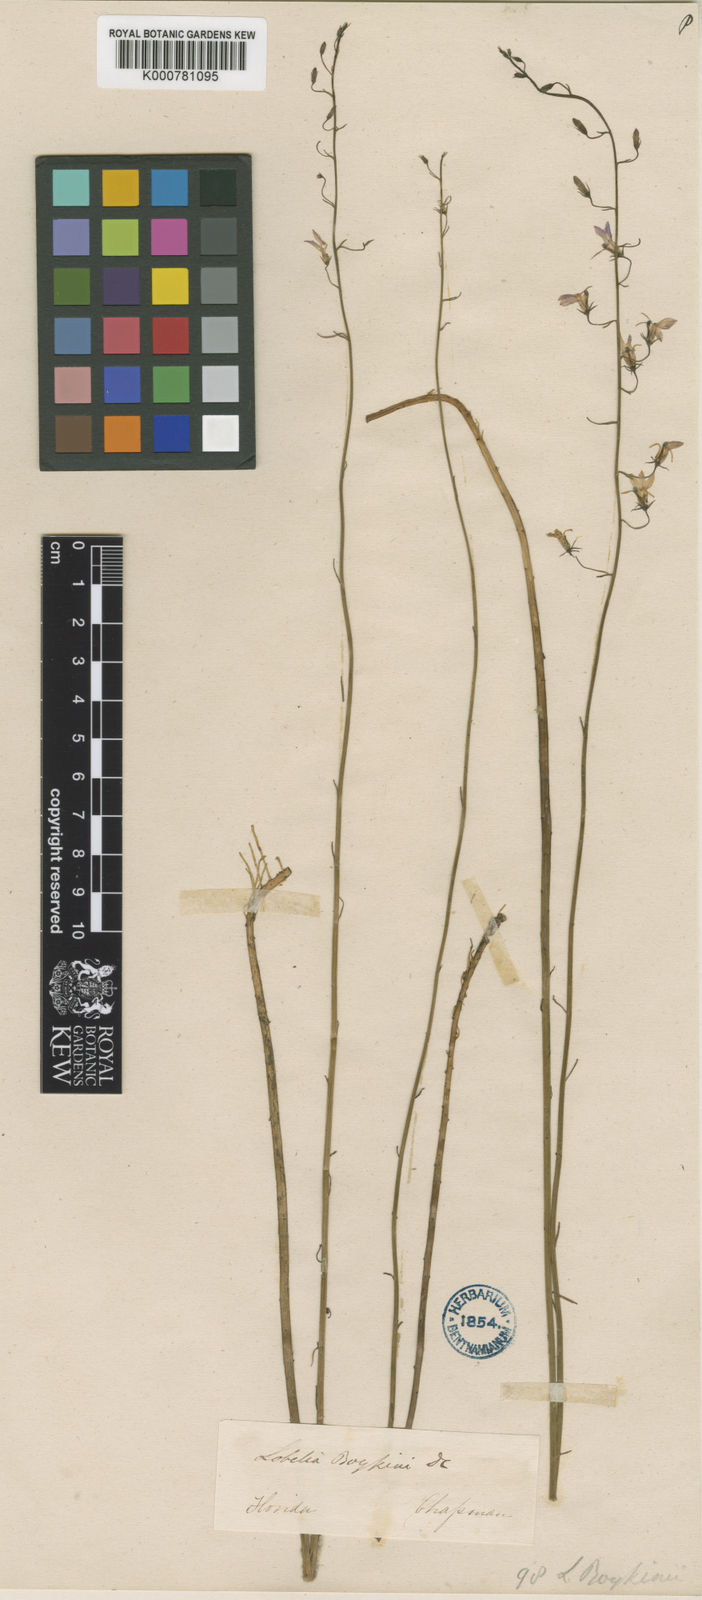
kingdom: Plantae
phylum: Tracheophyta
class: Magnoliopsida
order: Asterales
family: Campanulaceae
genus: Lobelia
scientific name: Lobelia boykinii
